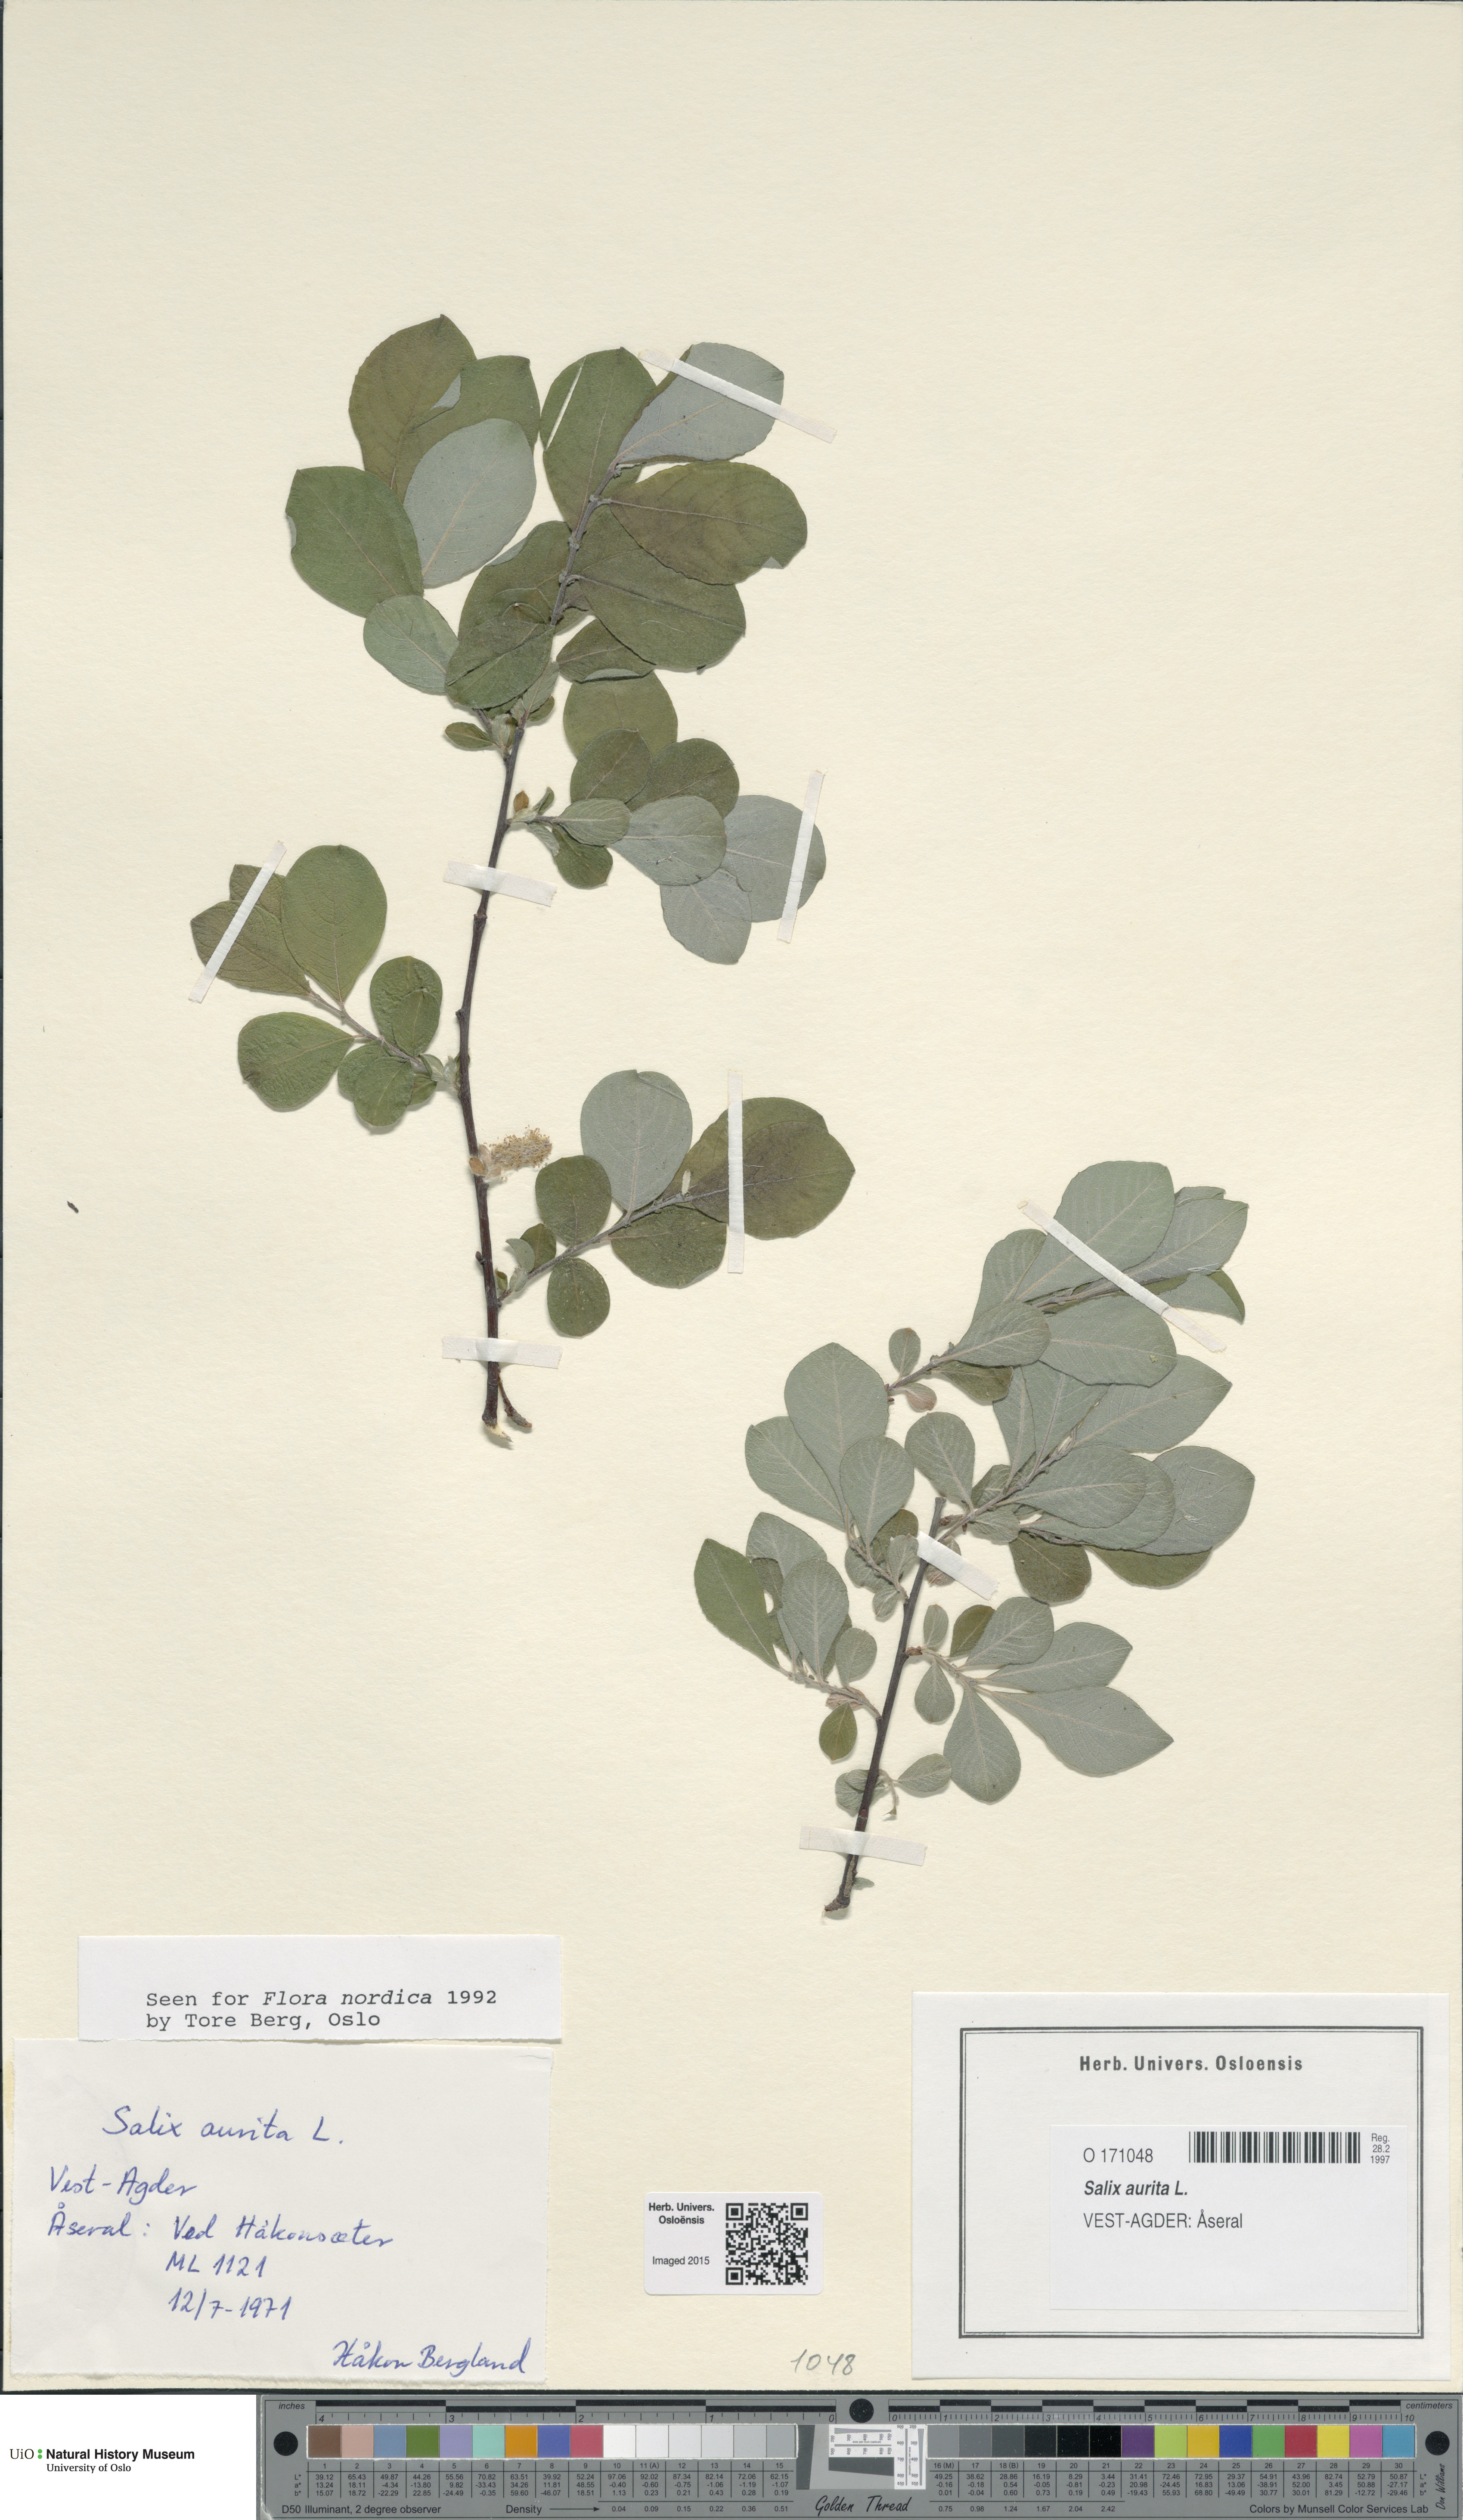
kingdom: Plantae
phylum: Tracheophyta
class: Magnoliopsida
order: Malpighiales
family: Salicaceae
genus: Salix
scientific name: Salix aurita
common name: Eared willow
